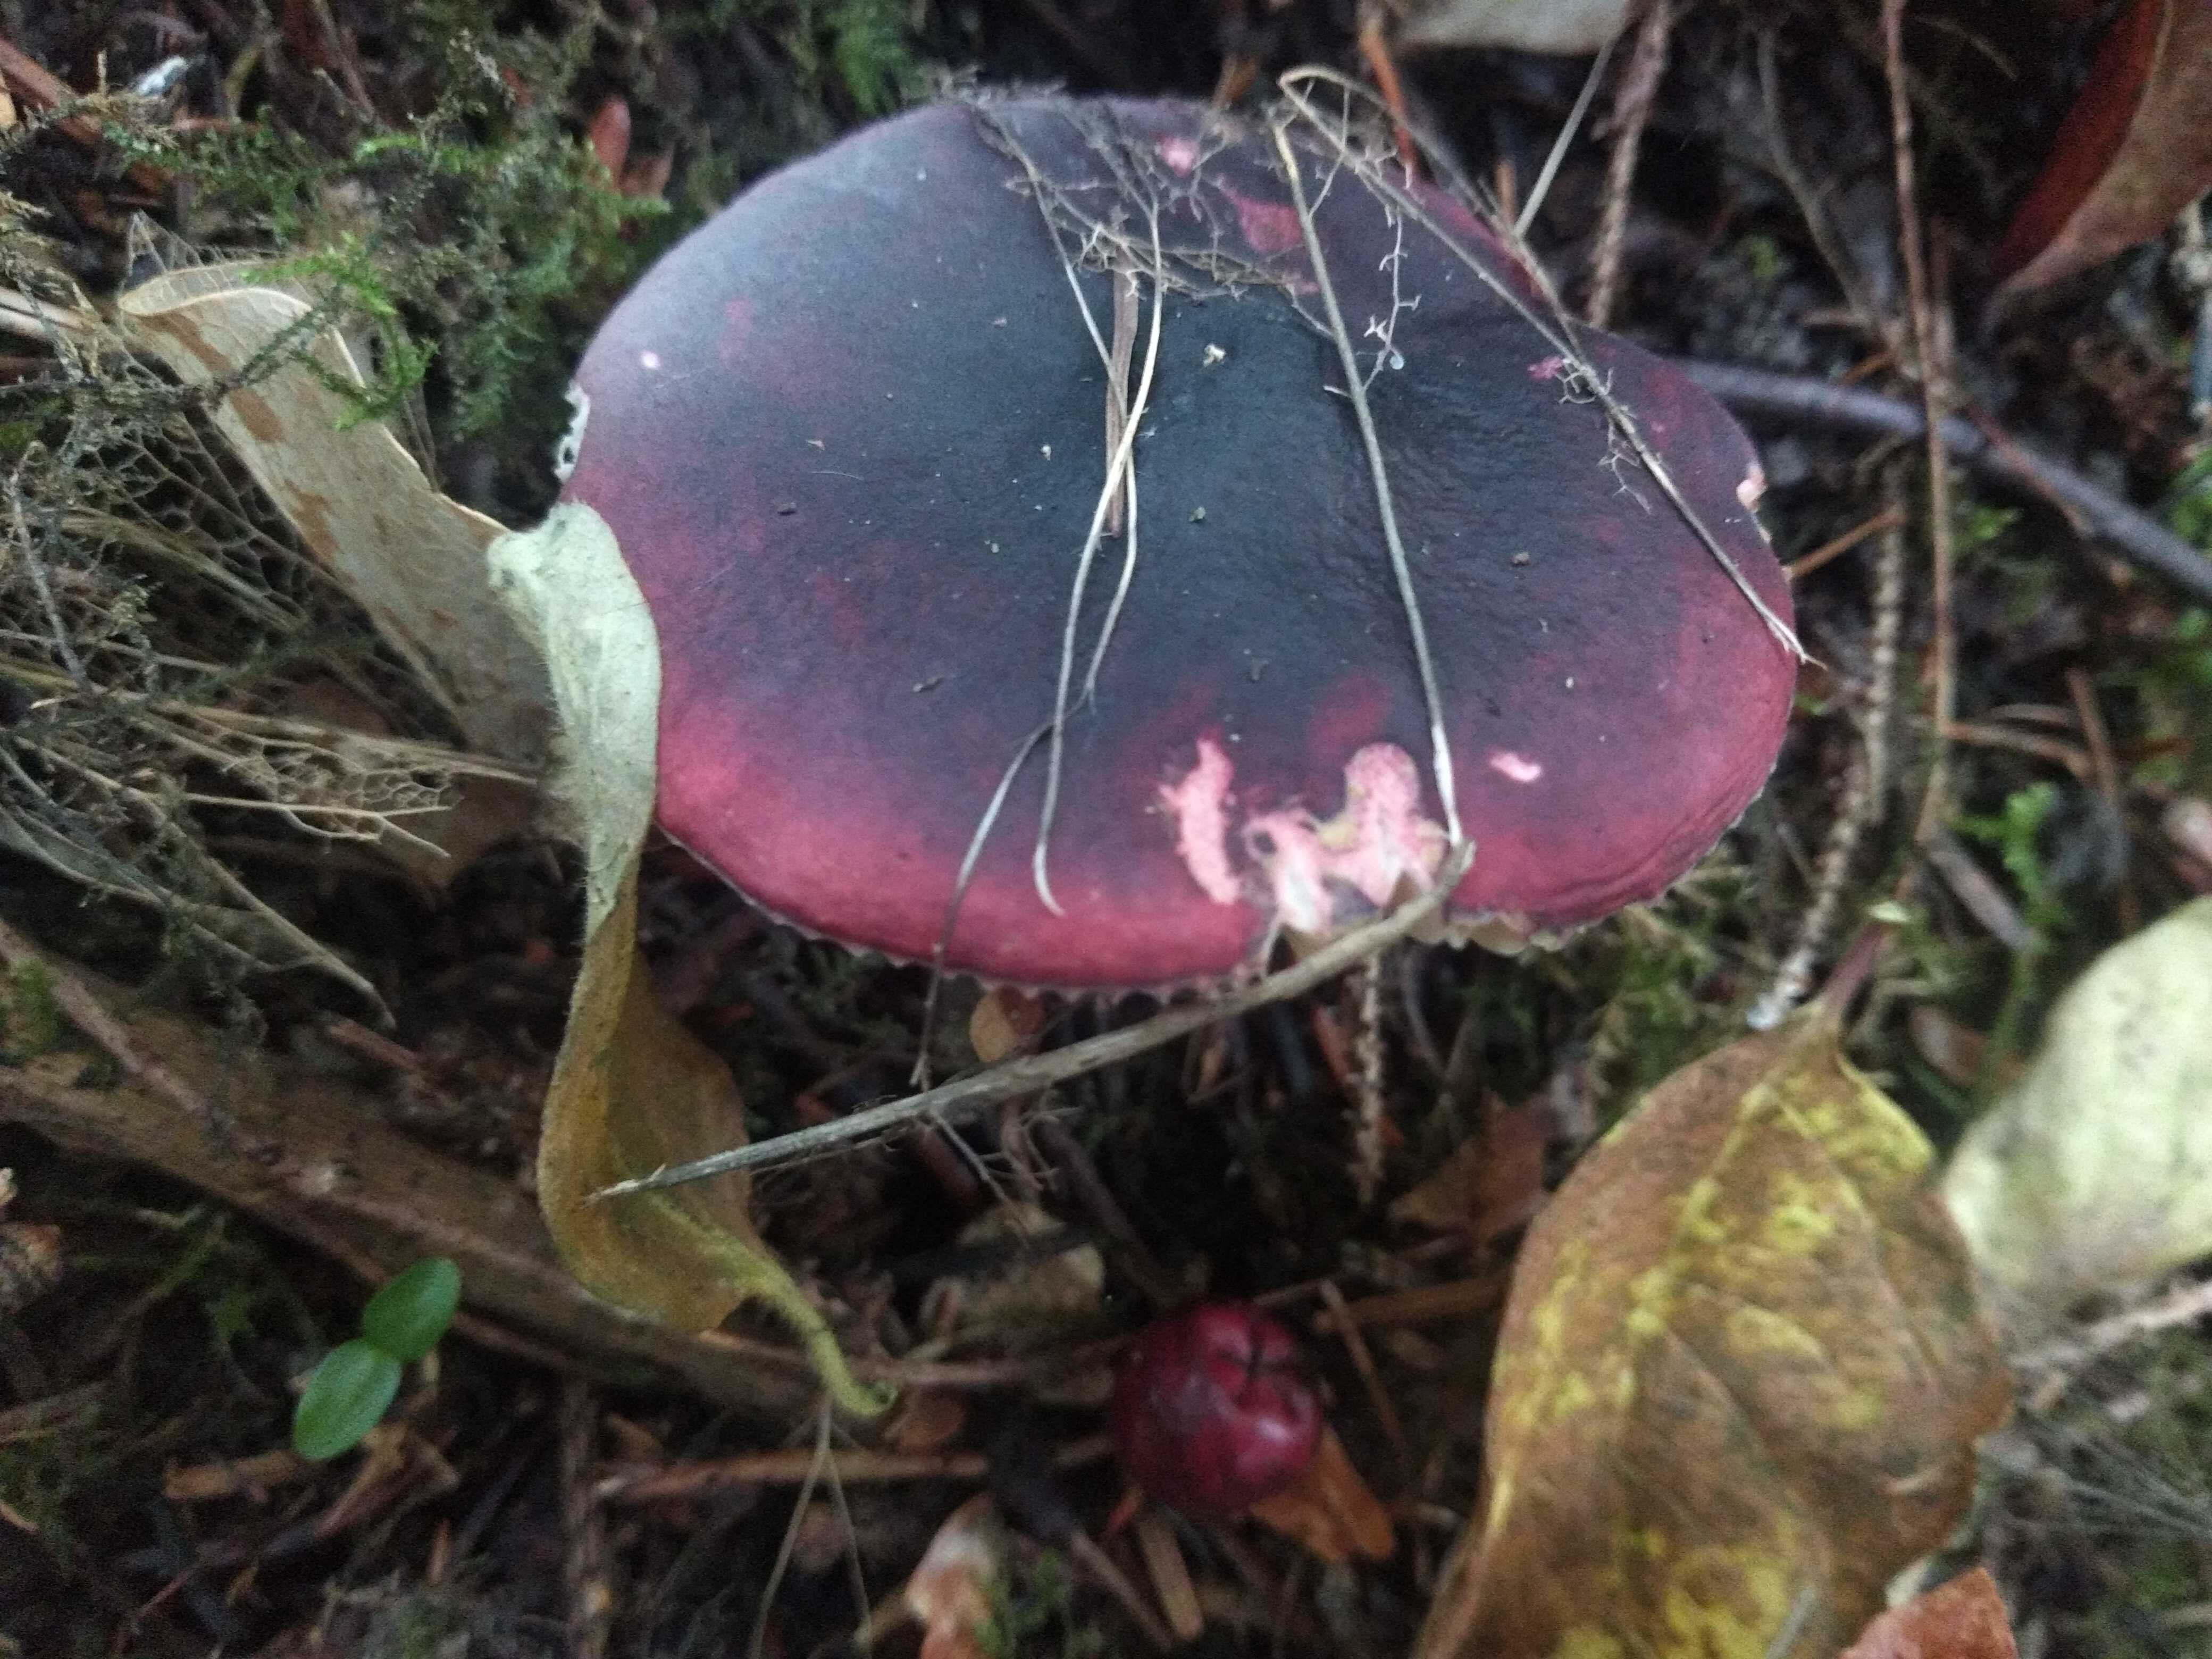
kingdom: Fungi
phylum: Basidiomycota
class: Agaricomycetes
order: Russulales
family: Russulaceae
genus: Russula
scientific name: Russula
